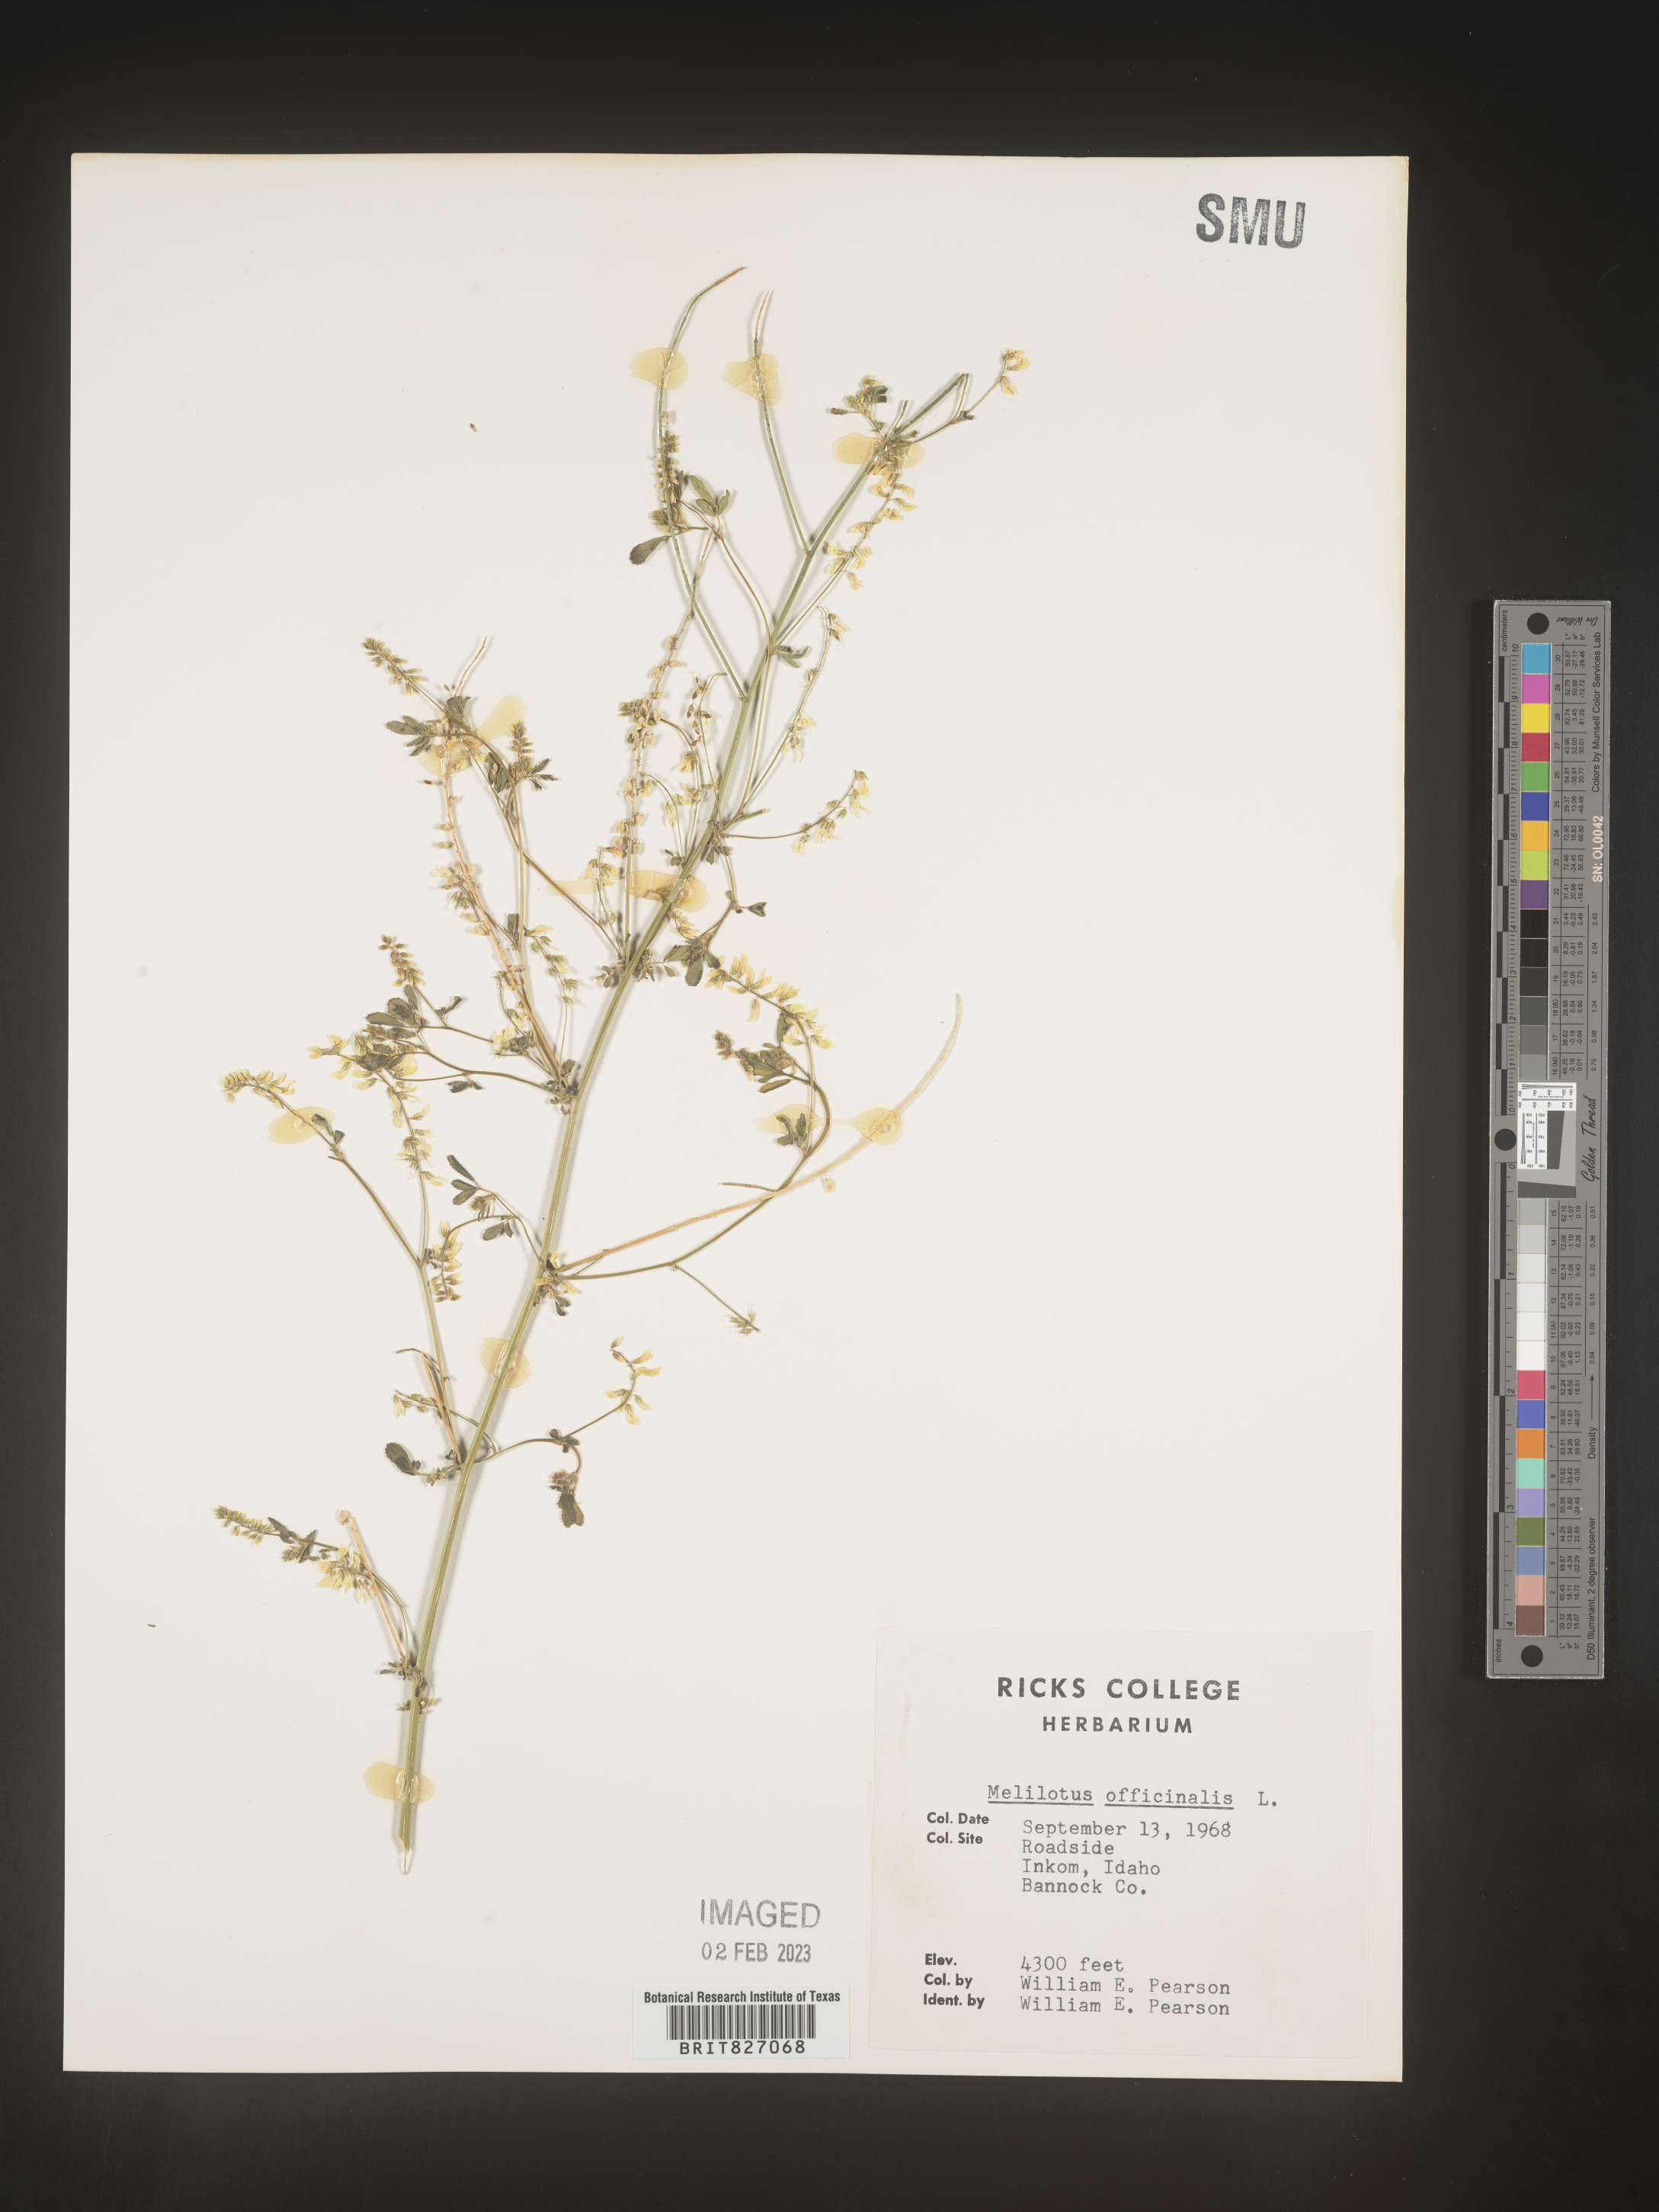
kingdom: Plantae
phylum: Tracheophyta
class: Magnoliopsida
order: Fabales
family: Fabaceae
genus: Melilotus
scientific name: Melilotus officinalis
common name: Sweetclover
